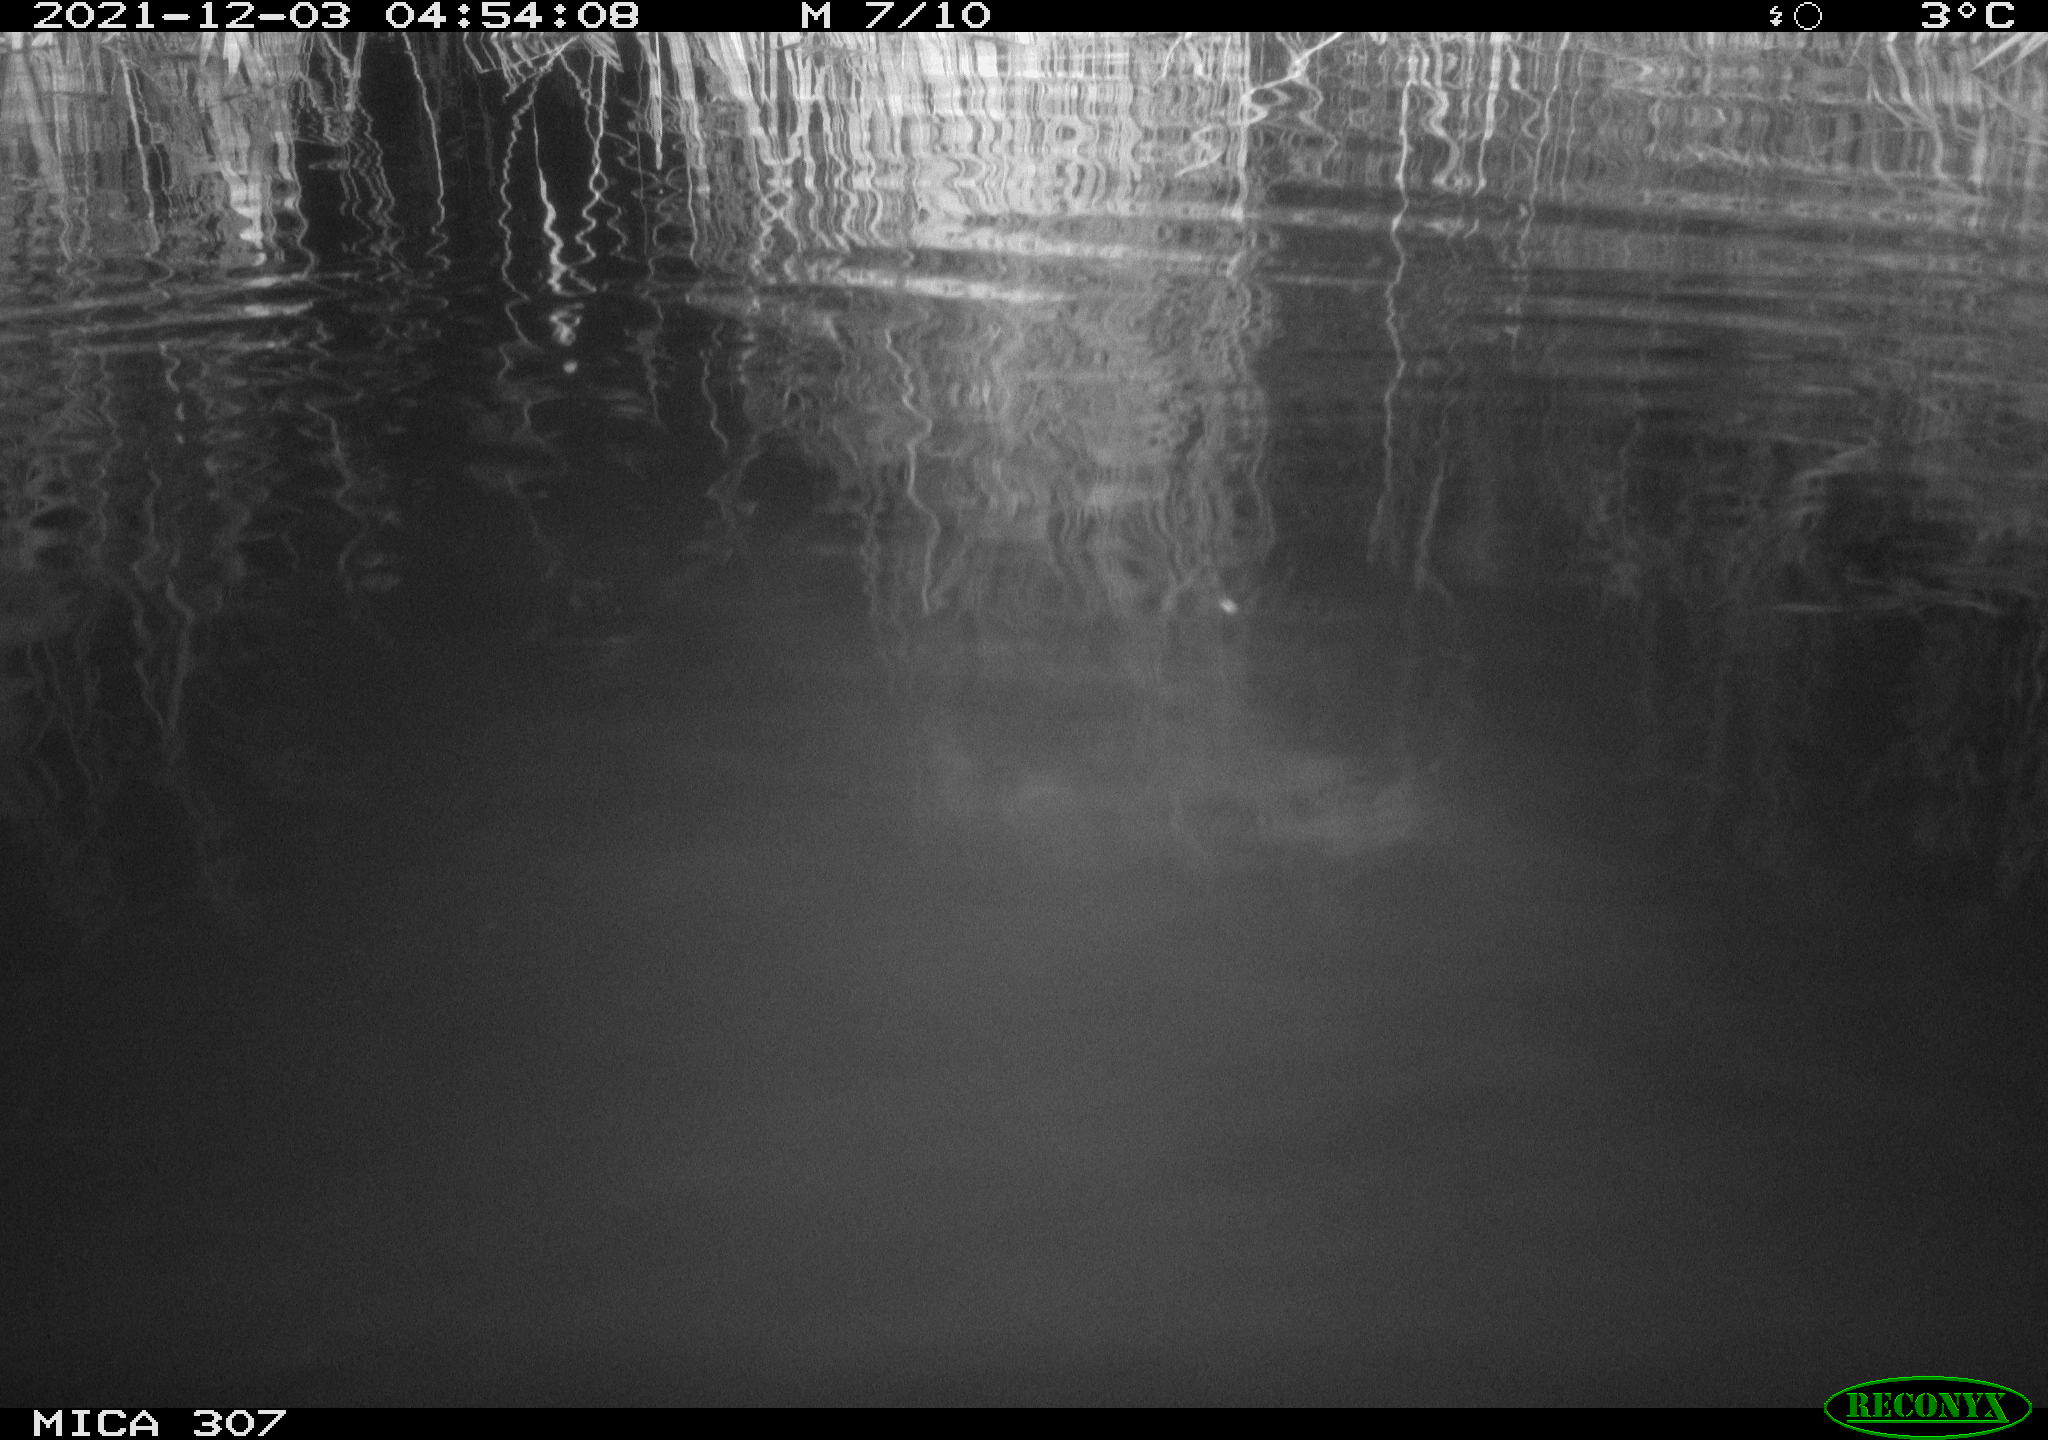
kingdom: Animalia
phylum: Chordata
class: Mammalia
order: Rodentia
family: Cricetidae
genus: Ondatra
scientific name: Ondatra zibethicus
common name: Muskrat
